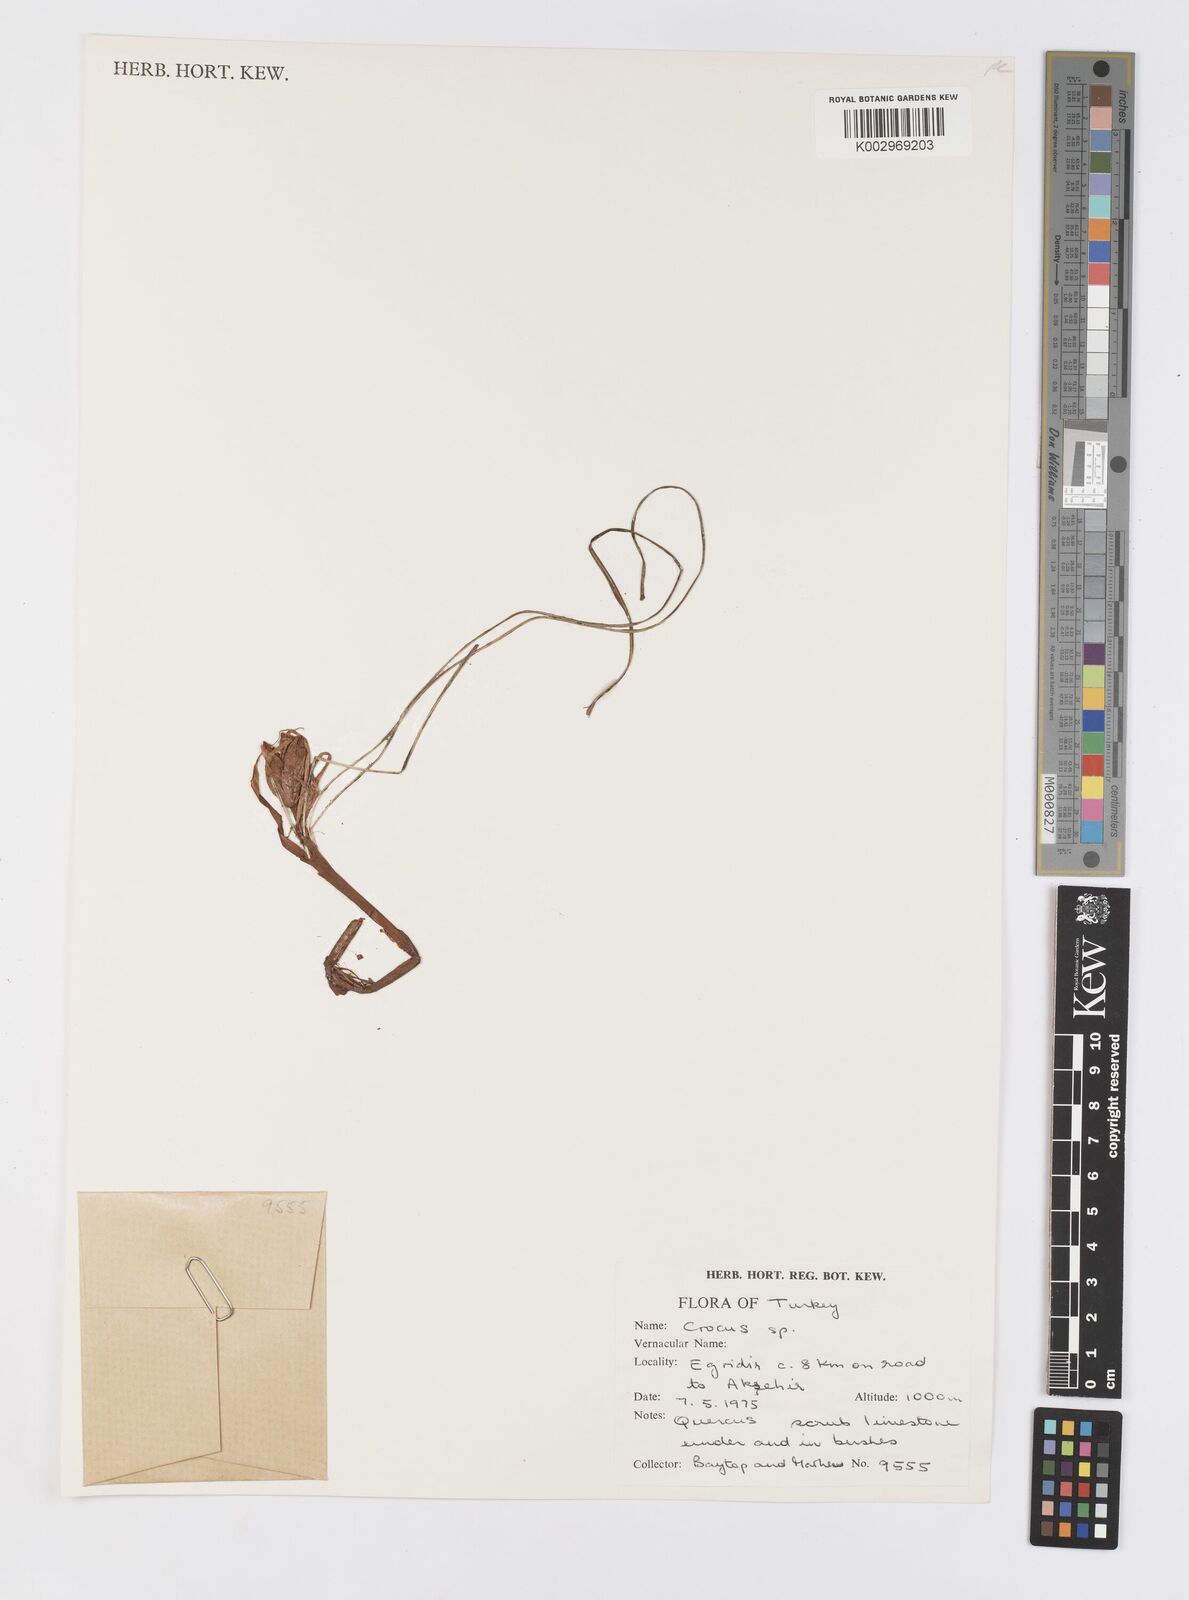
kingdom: Plantae
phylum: Tracheophyta
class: Liliopsida
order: Asparagales
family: Iridaceae
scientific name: Iridaceae
